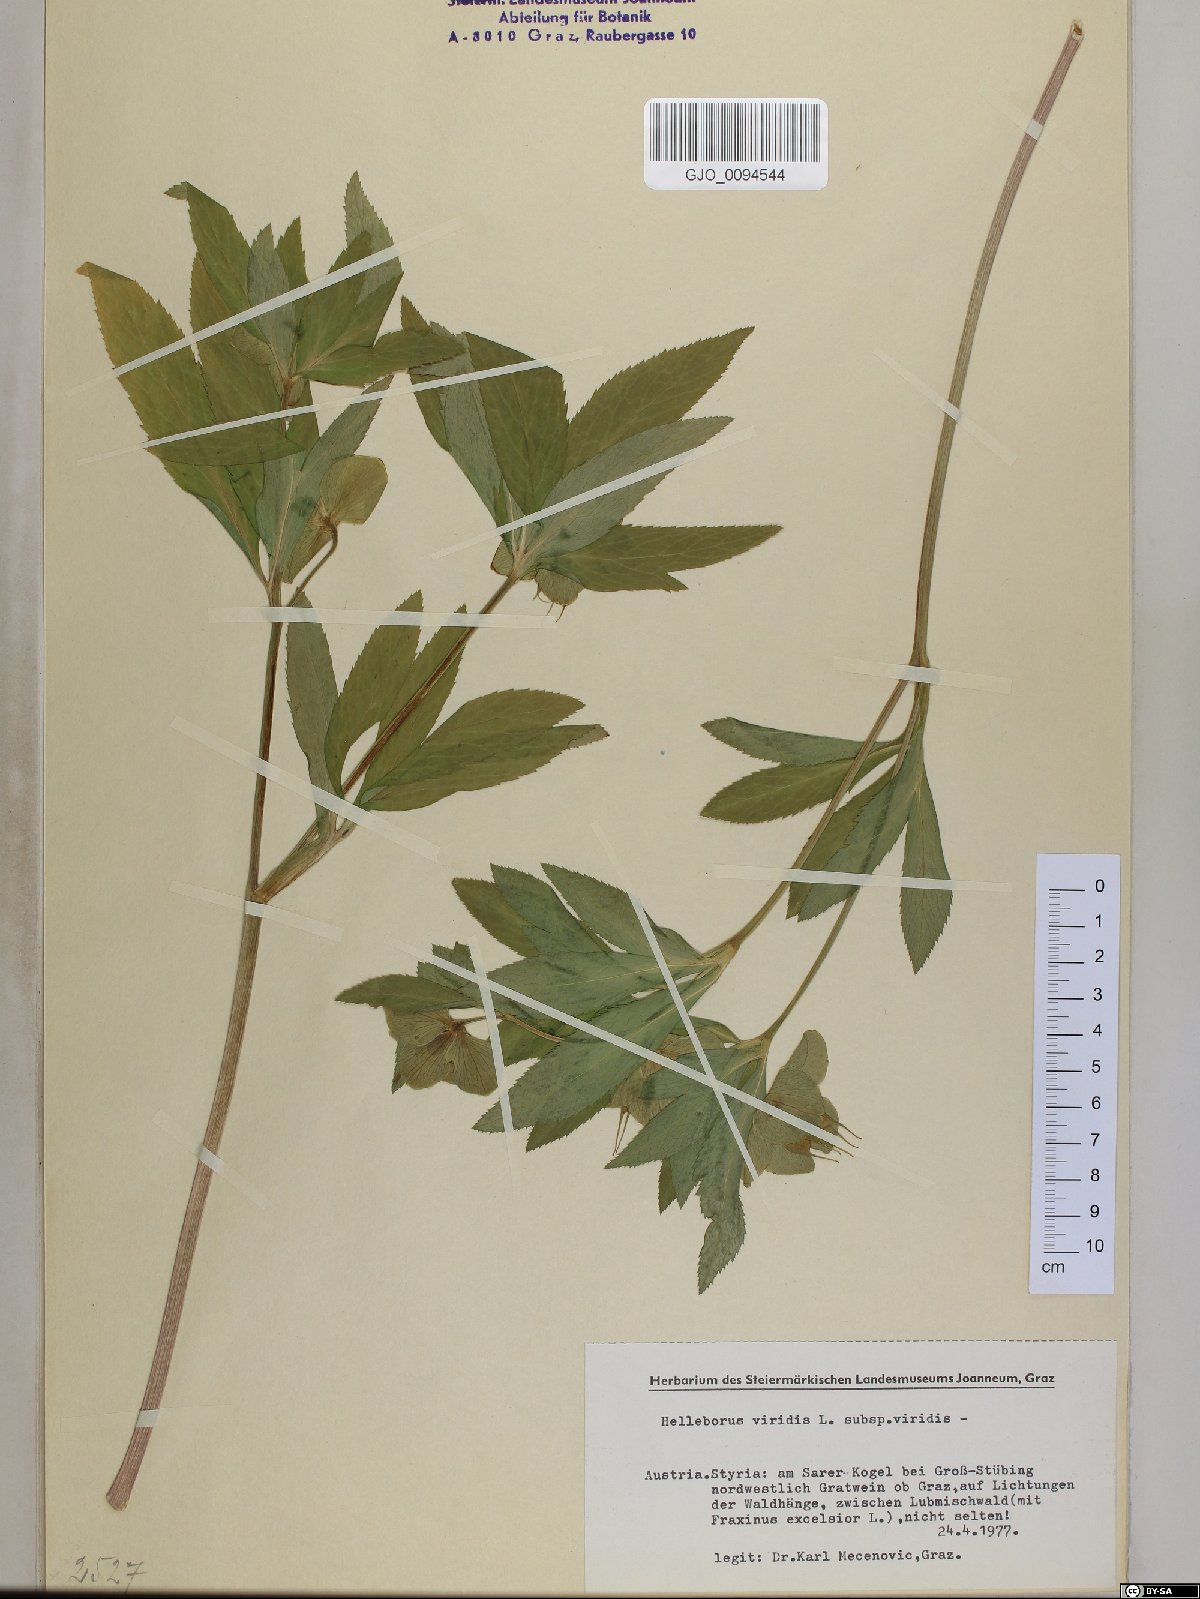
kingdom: Plantae
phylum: Tracheophyta
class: Magnoliopsida
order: Ranunculales
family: Ranunculaceae
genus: Helleborus
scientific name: Helleborus viridis
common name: Green hellebore
